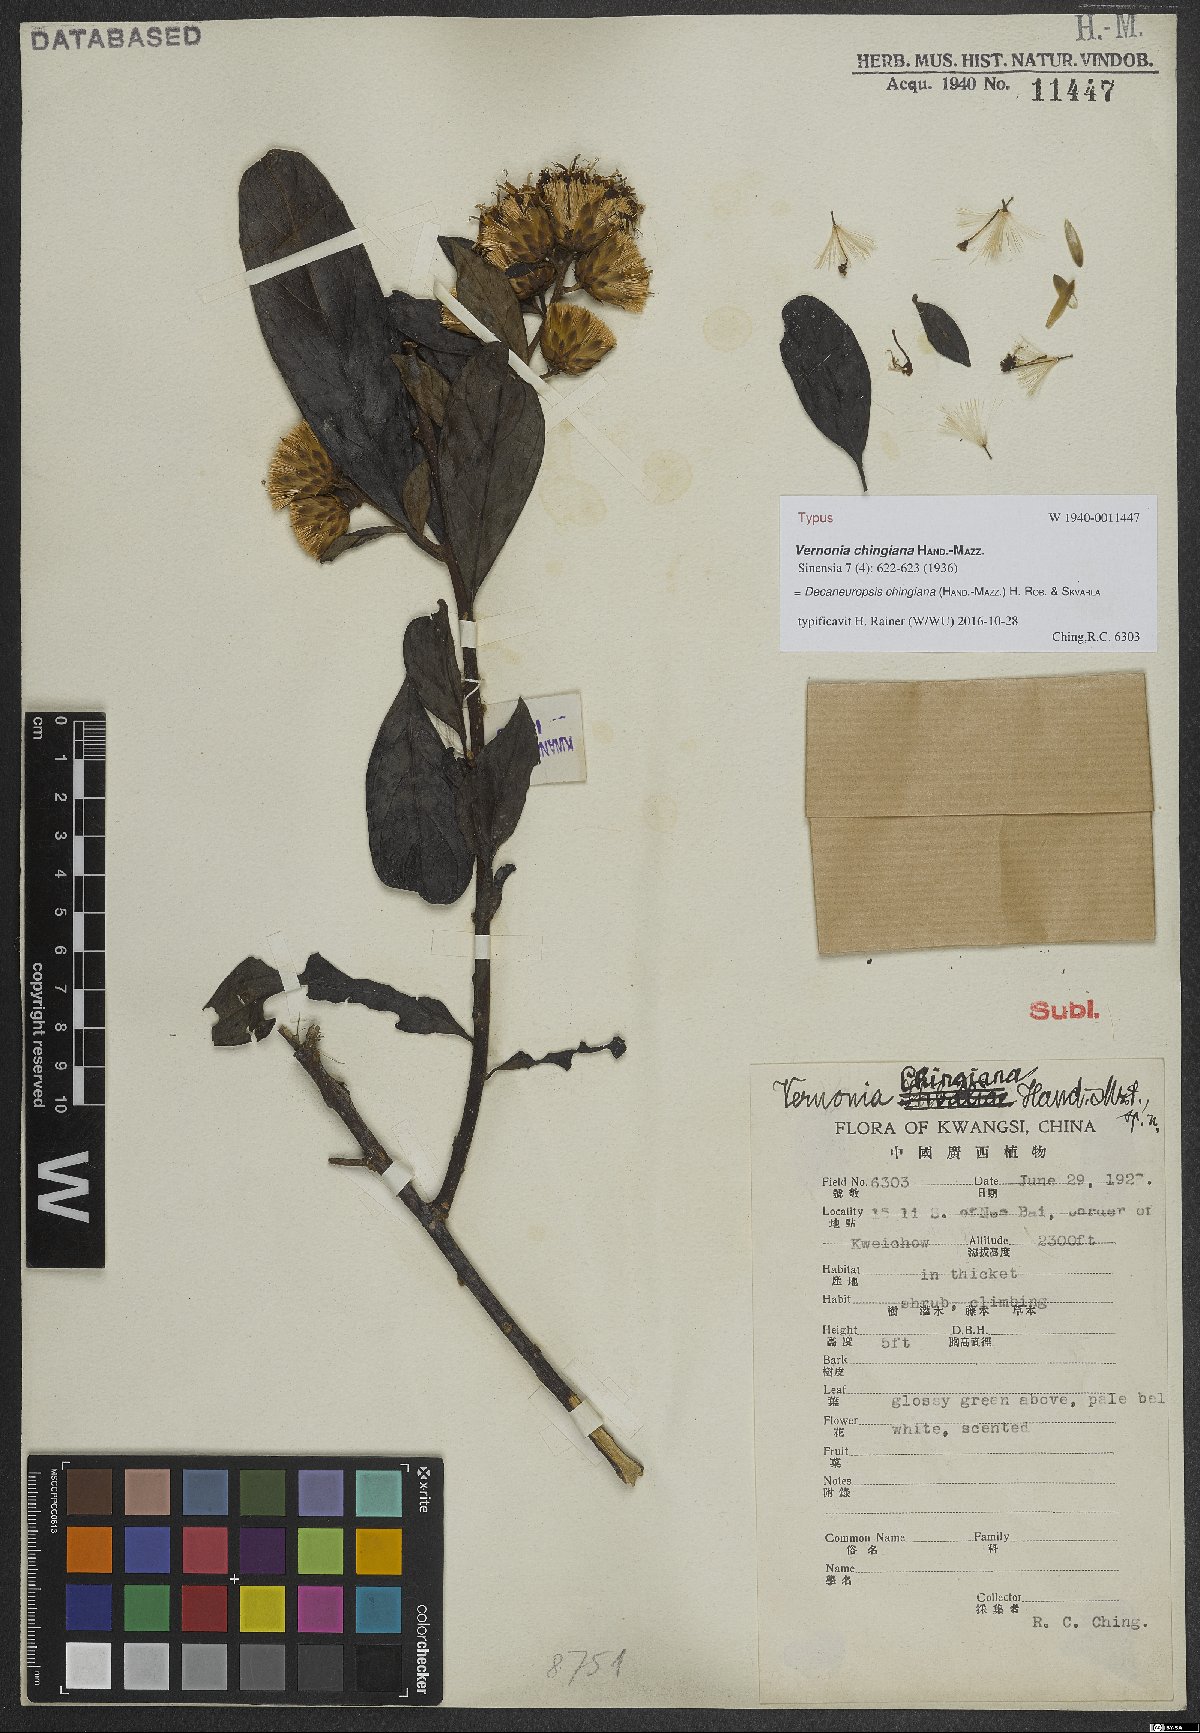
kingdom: Plantae
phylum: Tracheophyta
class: Magnoliopsida
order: Asterales
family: Asteraceae
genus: Decaneuropsis
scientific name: Decaneuropsis chingiana
